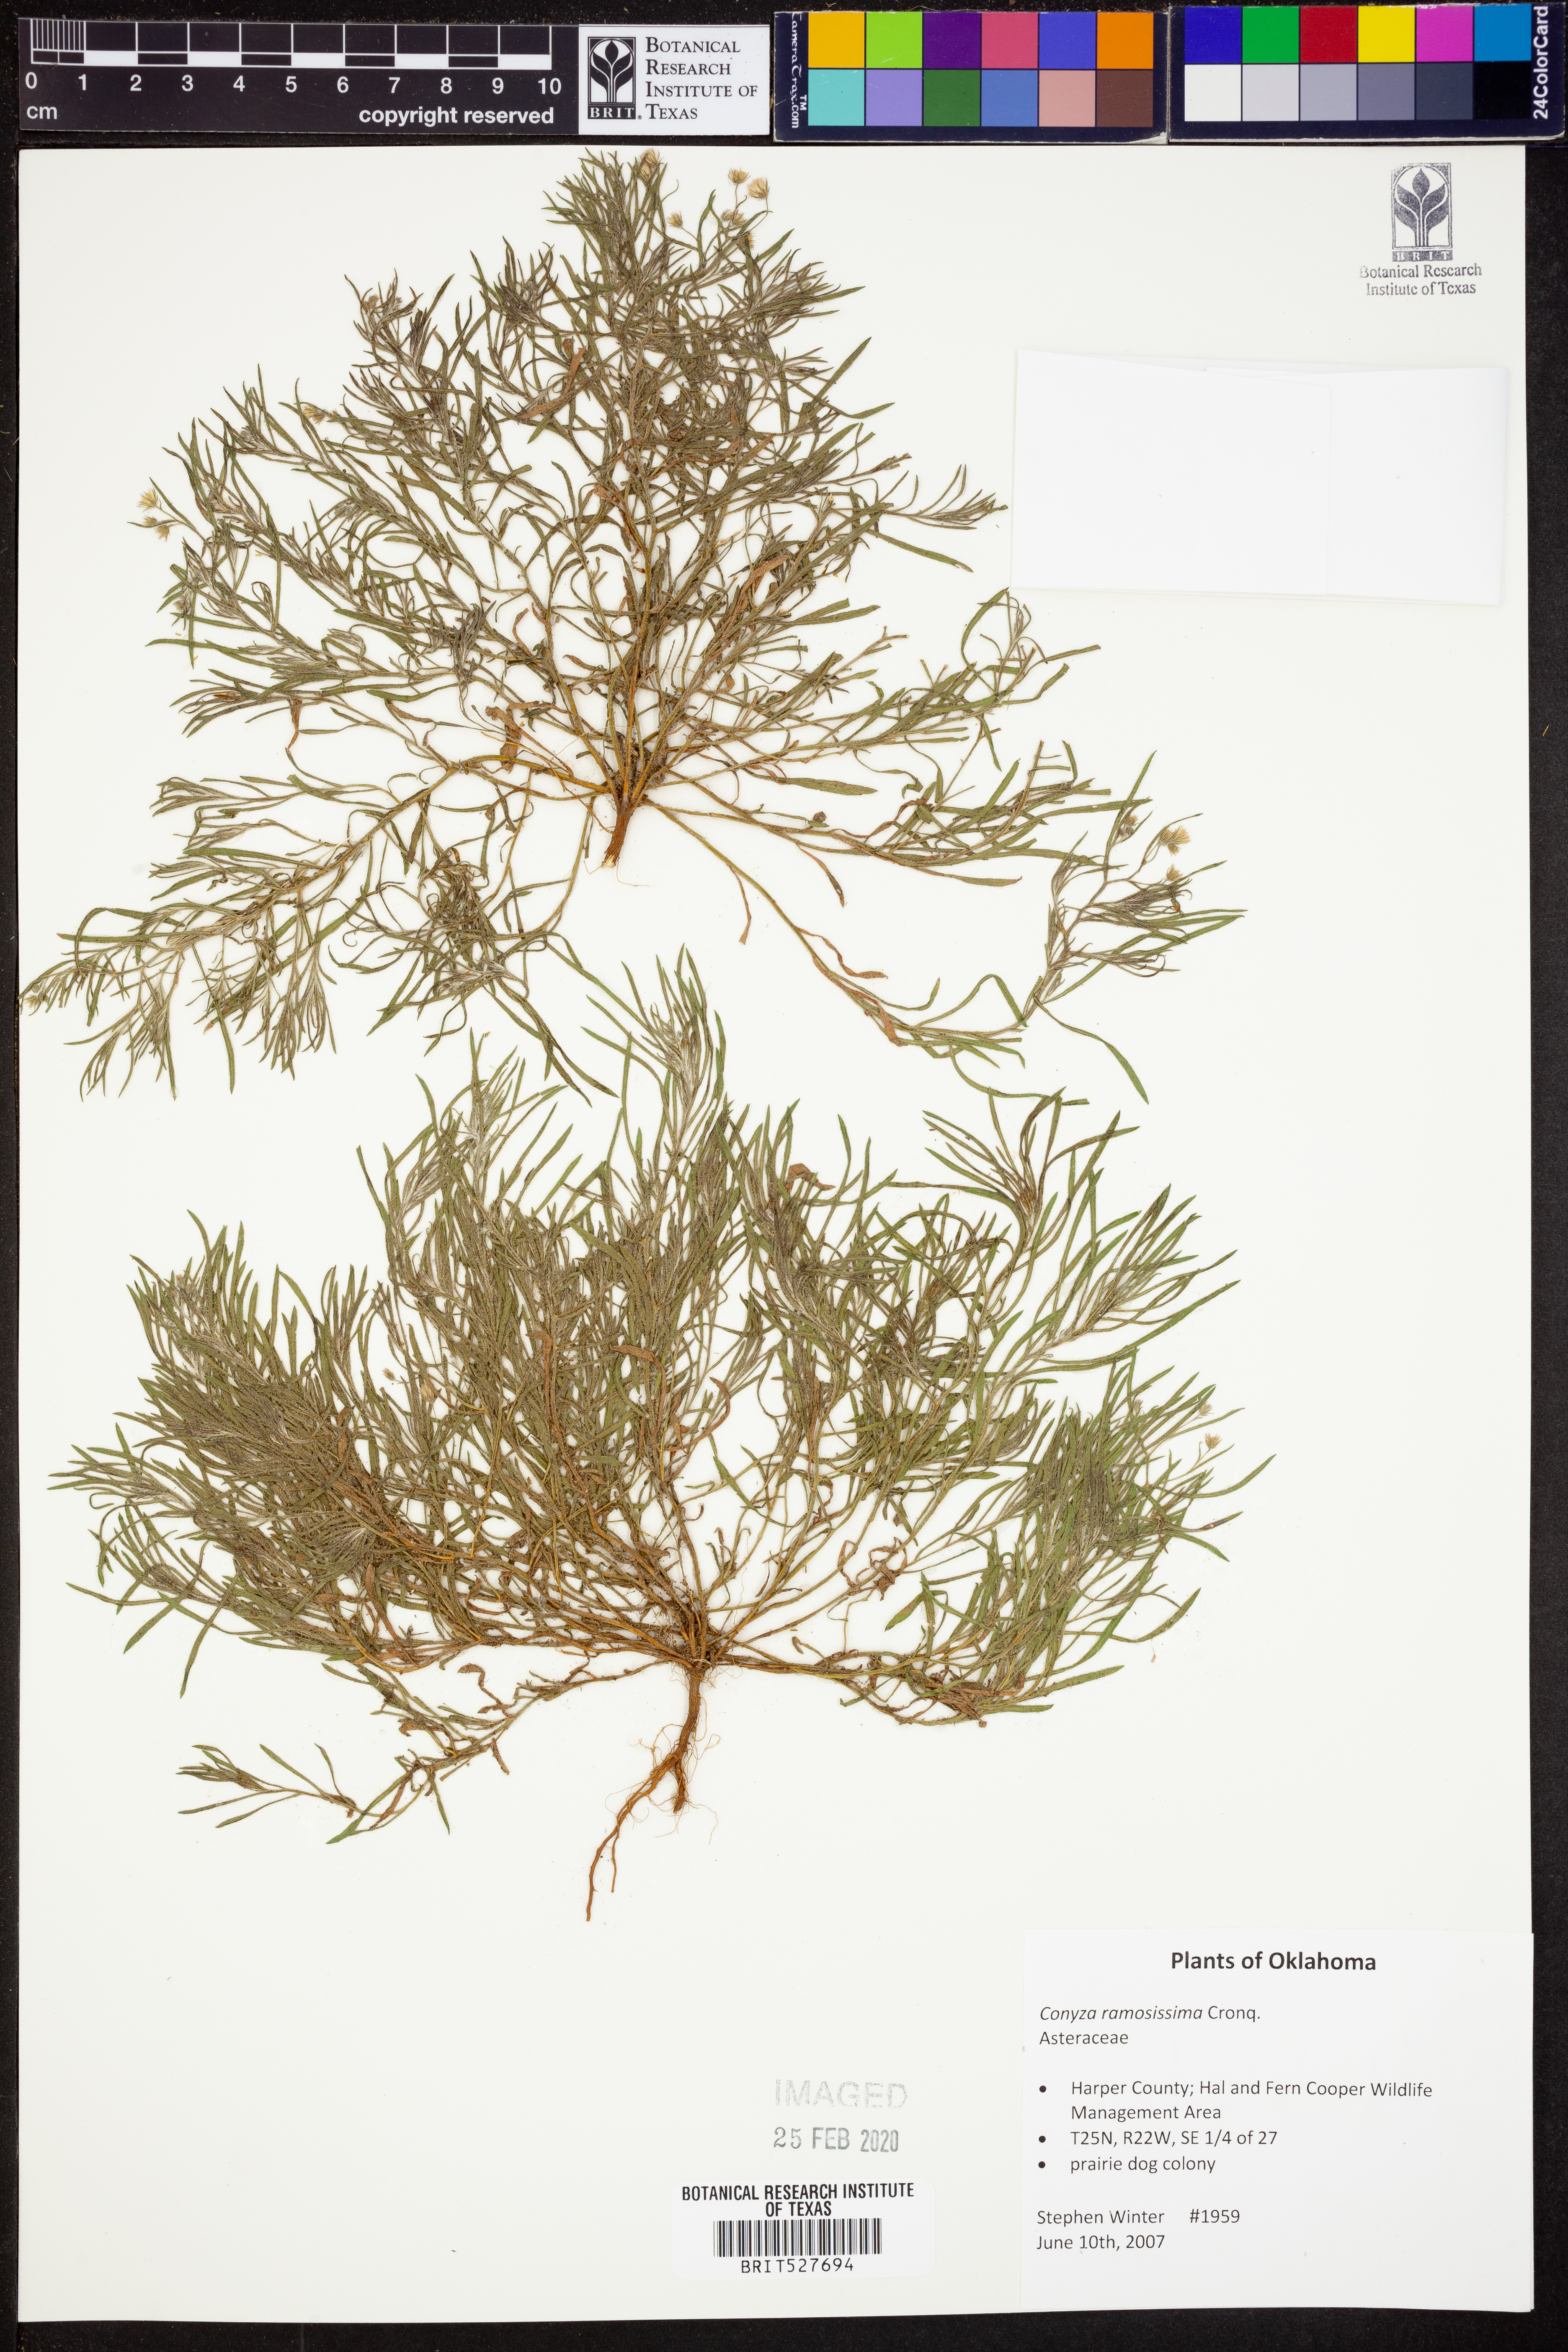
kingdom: Plantae
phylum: Tracheophyta
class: Magnoliopsida
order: Asterales
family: Asteraceae
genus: Erigeron
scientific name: Erigeron divaricatus
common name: Dwarf conyza
